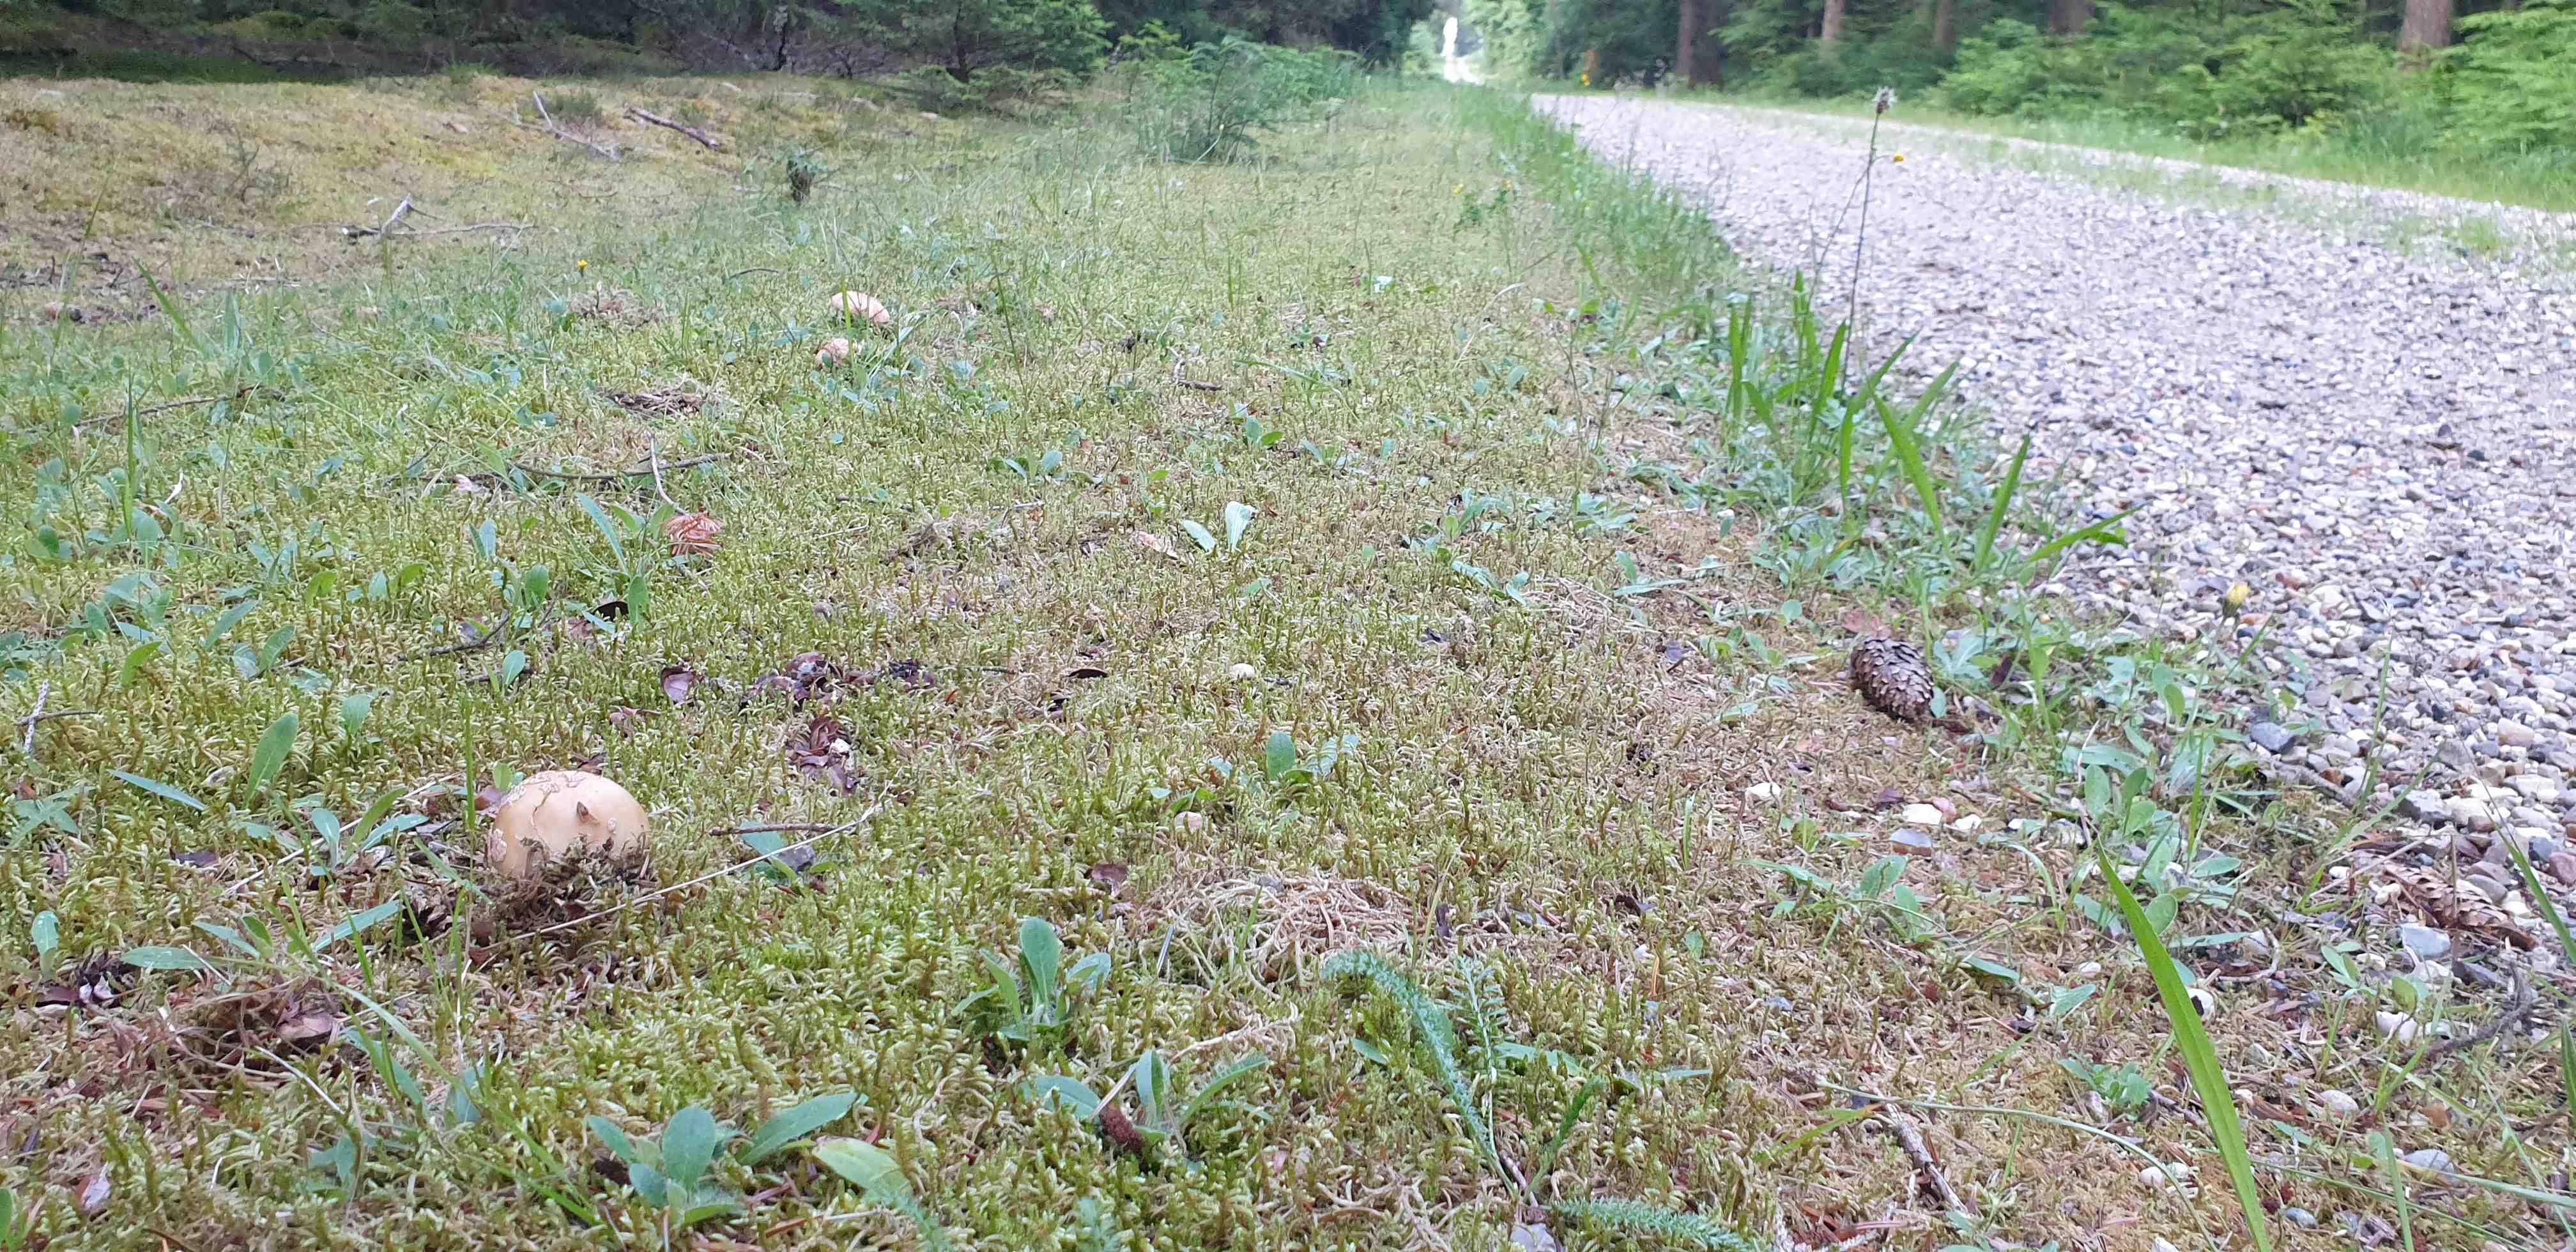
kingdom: Fungi
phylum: Basidiomycota
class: Agaricomycetes
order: Agaricales
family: Amanitaceae
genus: Amanita
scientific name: Amanita rubescens
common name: rødmende fluesvamp
